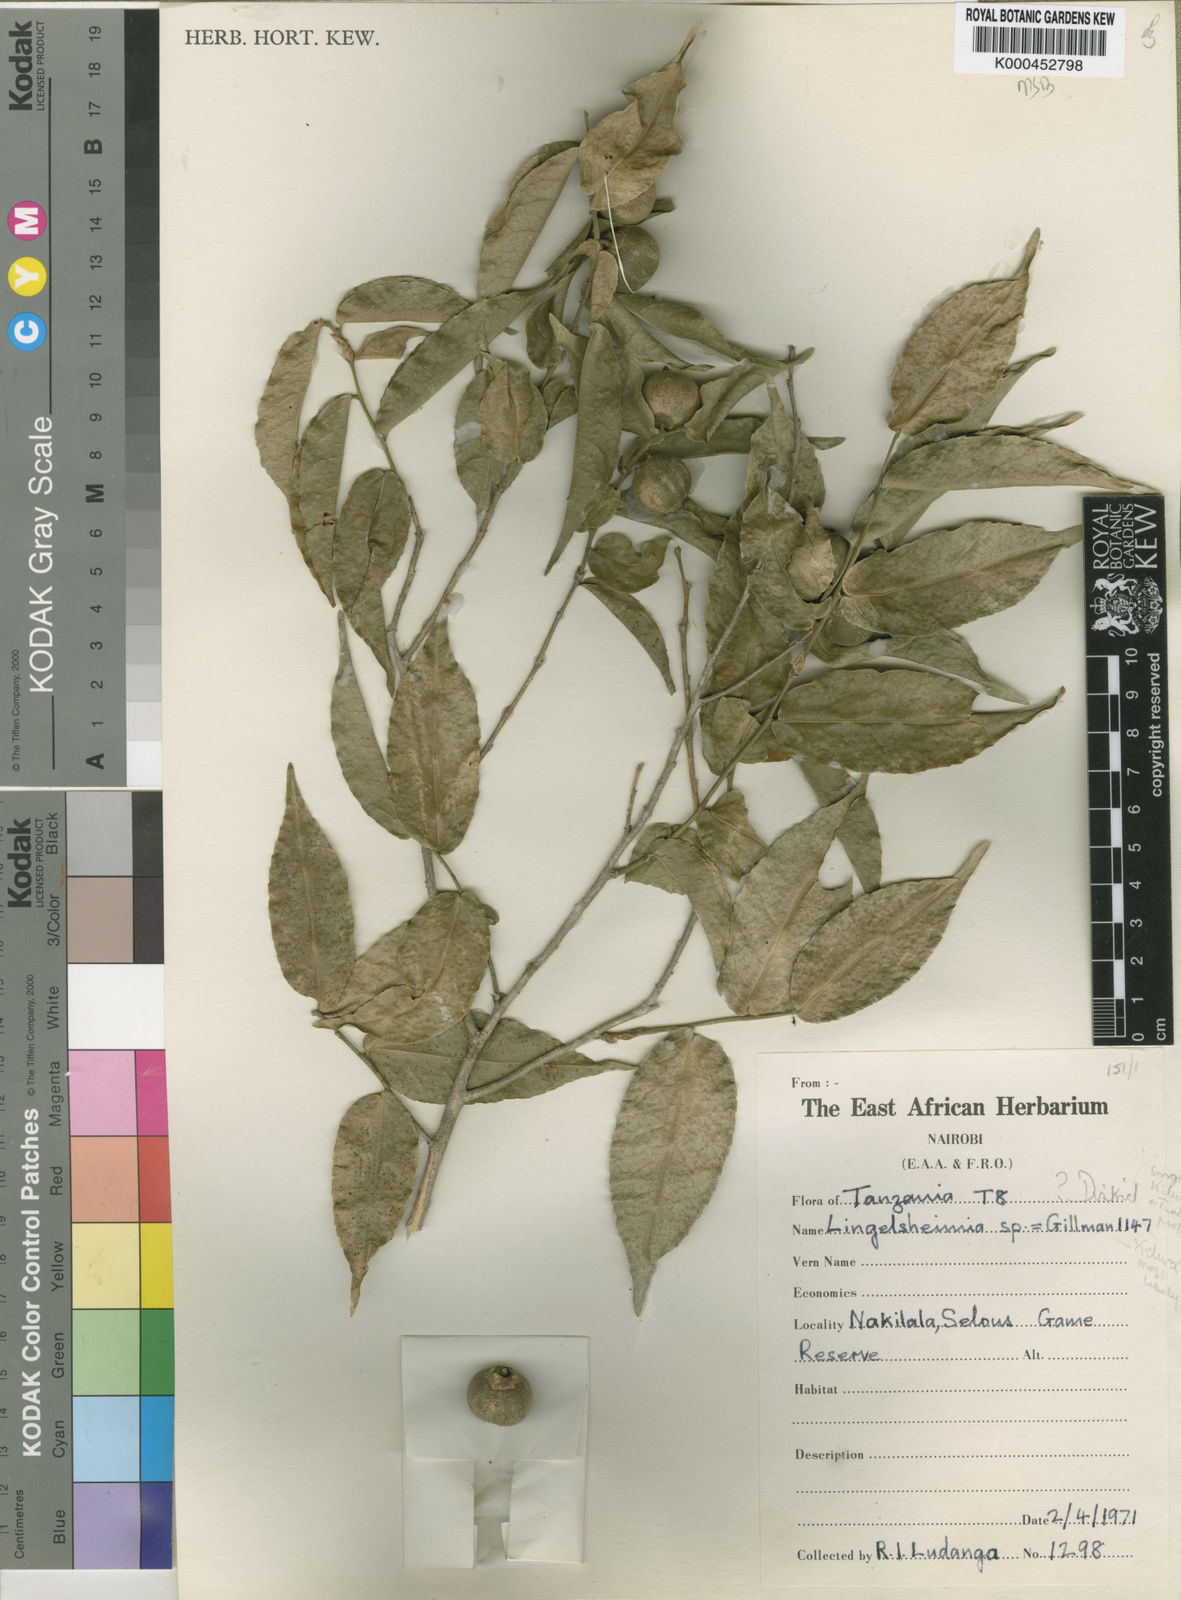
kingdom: Plantae
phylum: Tracheophyta
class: Magnoliopsida
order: Malpighiales
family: Putranjivaceae
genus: Drypetes
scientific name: Drypetes
